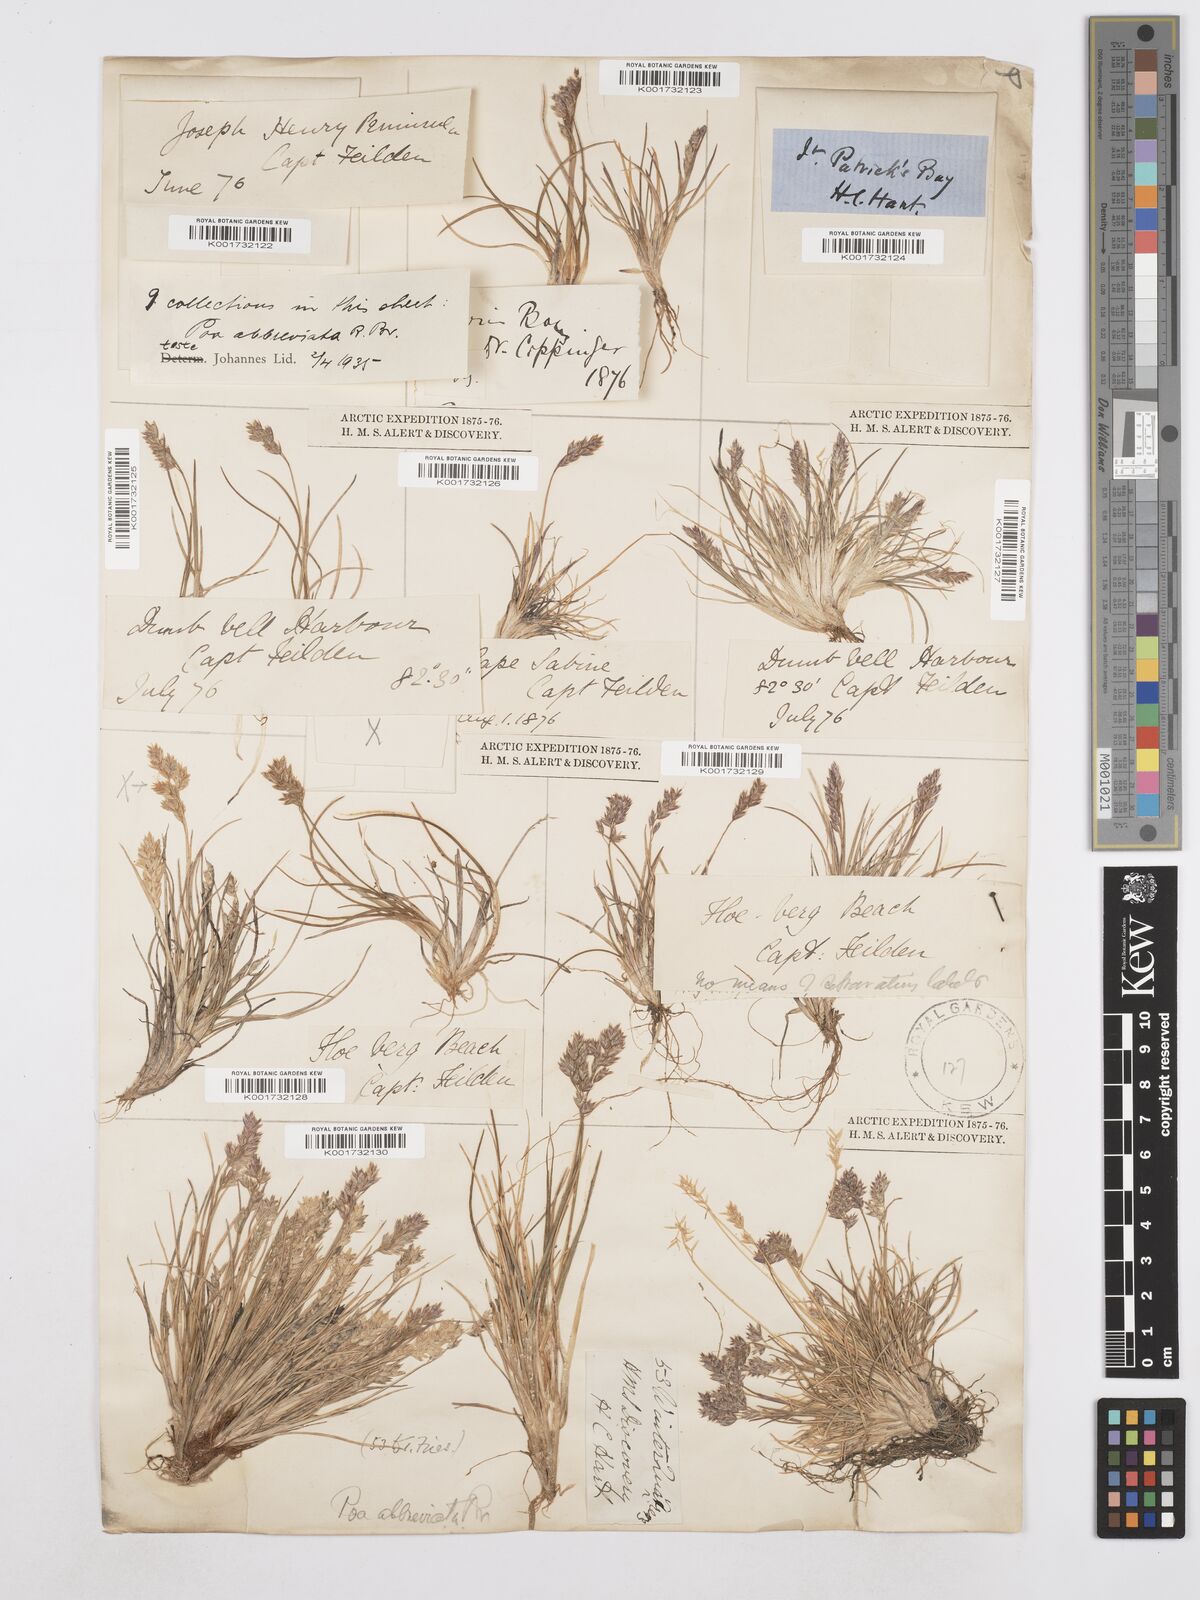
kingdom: Plantae
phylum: Tracheophyta
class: Liliopsida
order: Poales
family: Poaceae
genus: Poa
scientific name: Poa abbreviata
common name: Abbreviated bluegrass
